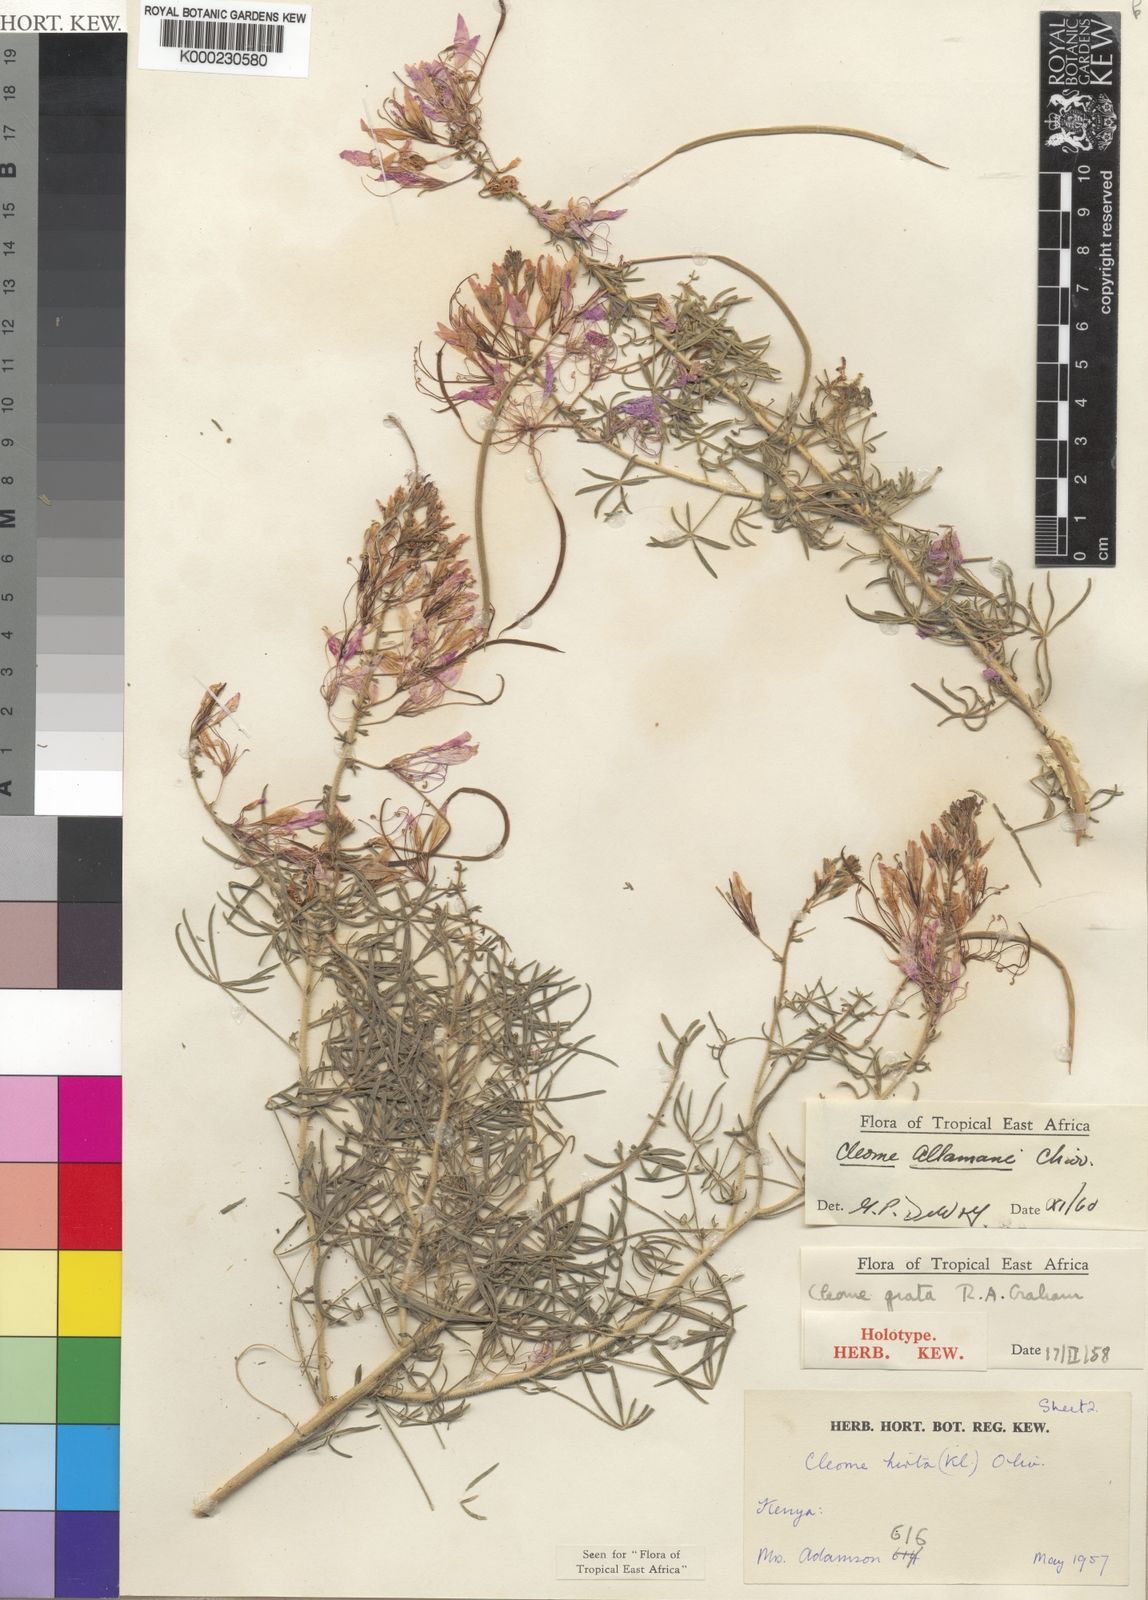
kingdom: Plantae
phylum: Tracheophyta
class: Magnoliopsida
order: Brassicales
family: Cleomaceae
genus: Sieruela
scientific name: Sieruela allamani
